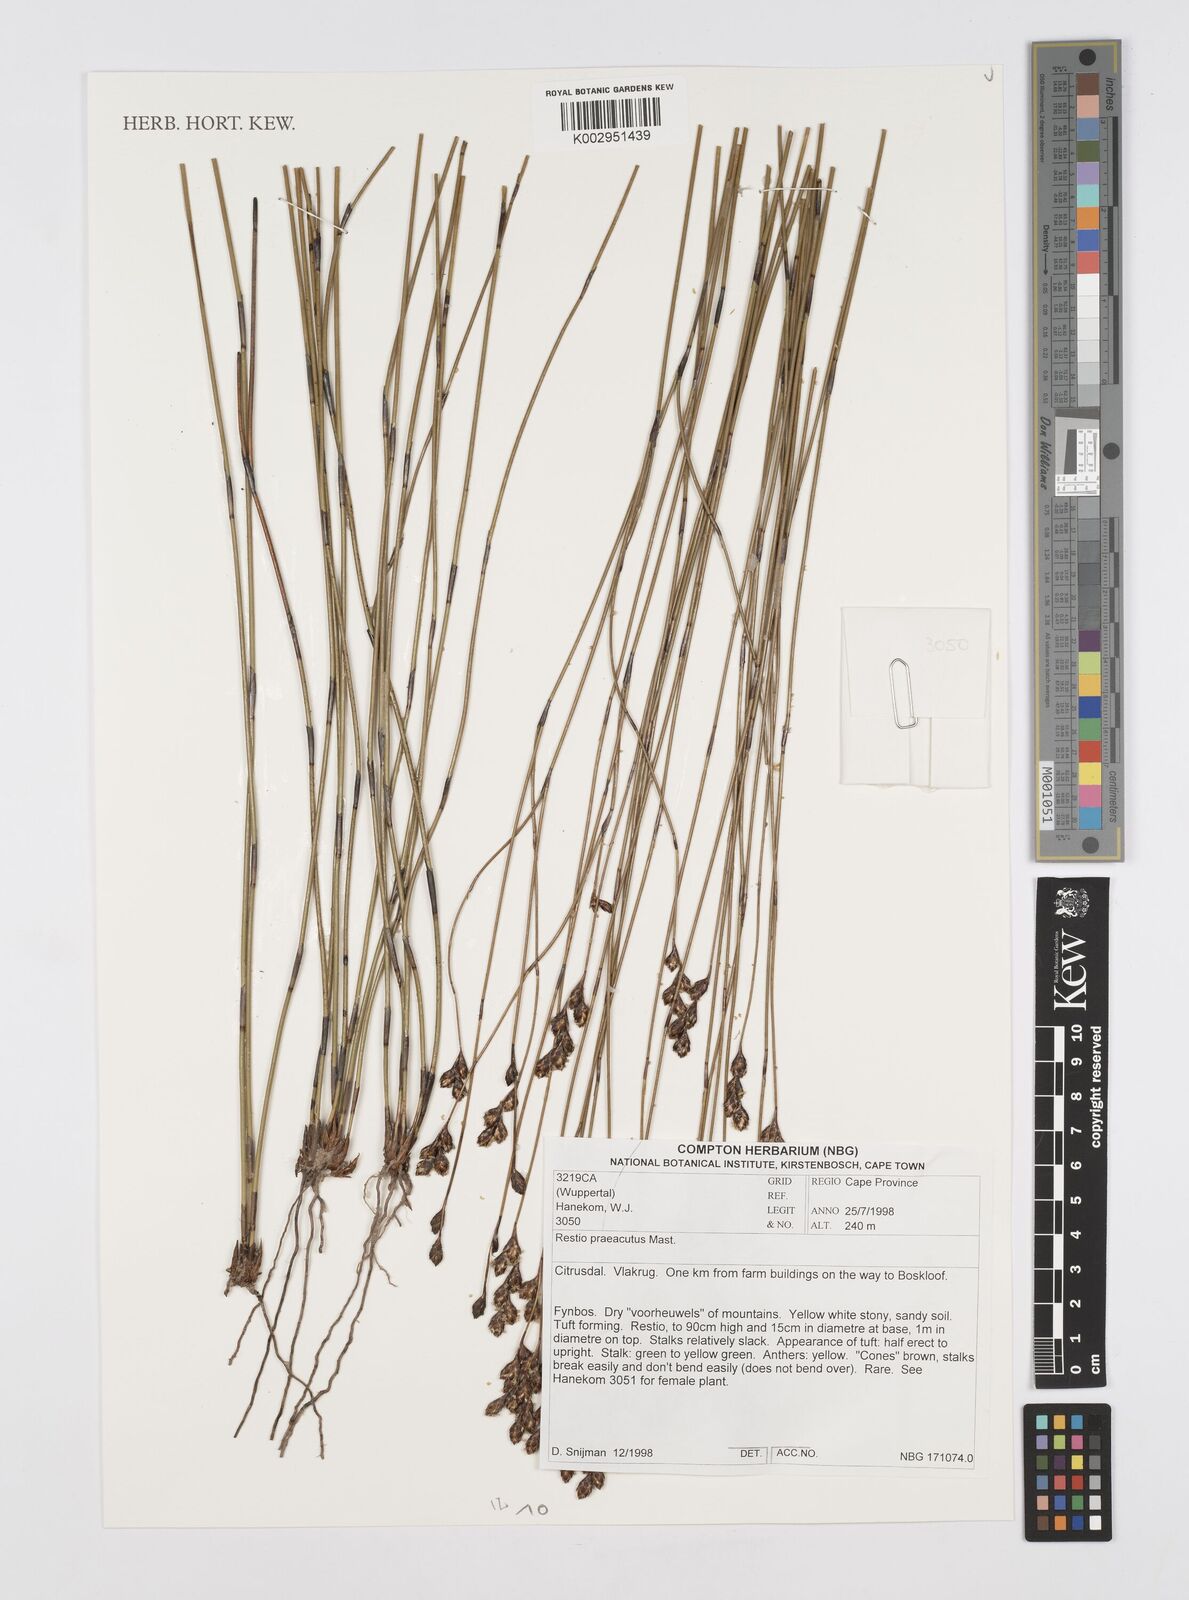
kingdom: Plantae
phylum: Tracheophyta
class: Liliopsida
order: Poales
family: Restionaceae
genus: Restio
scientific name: Restio
